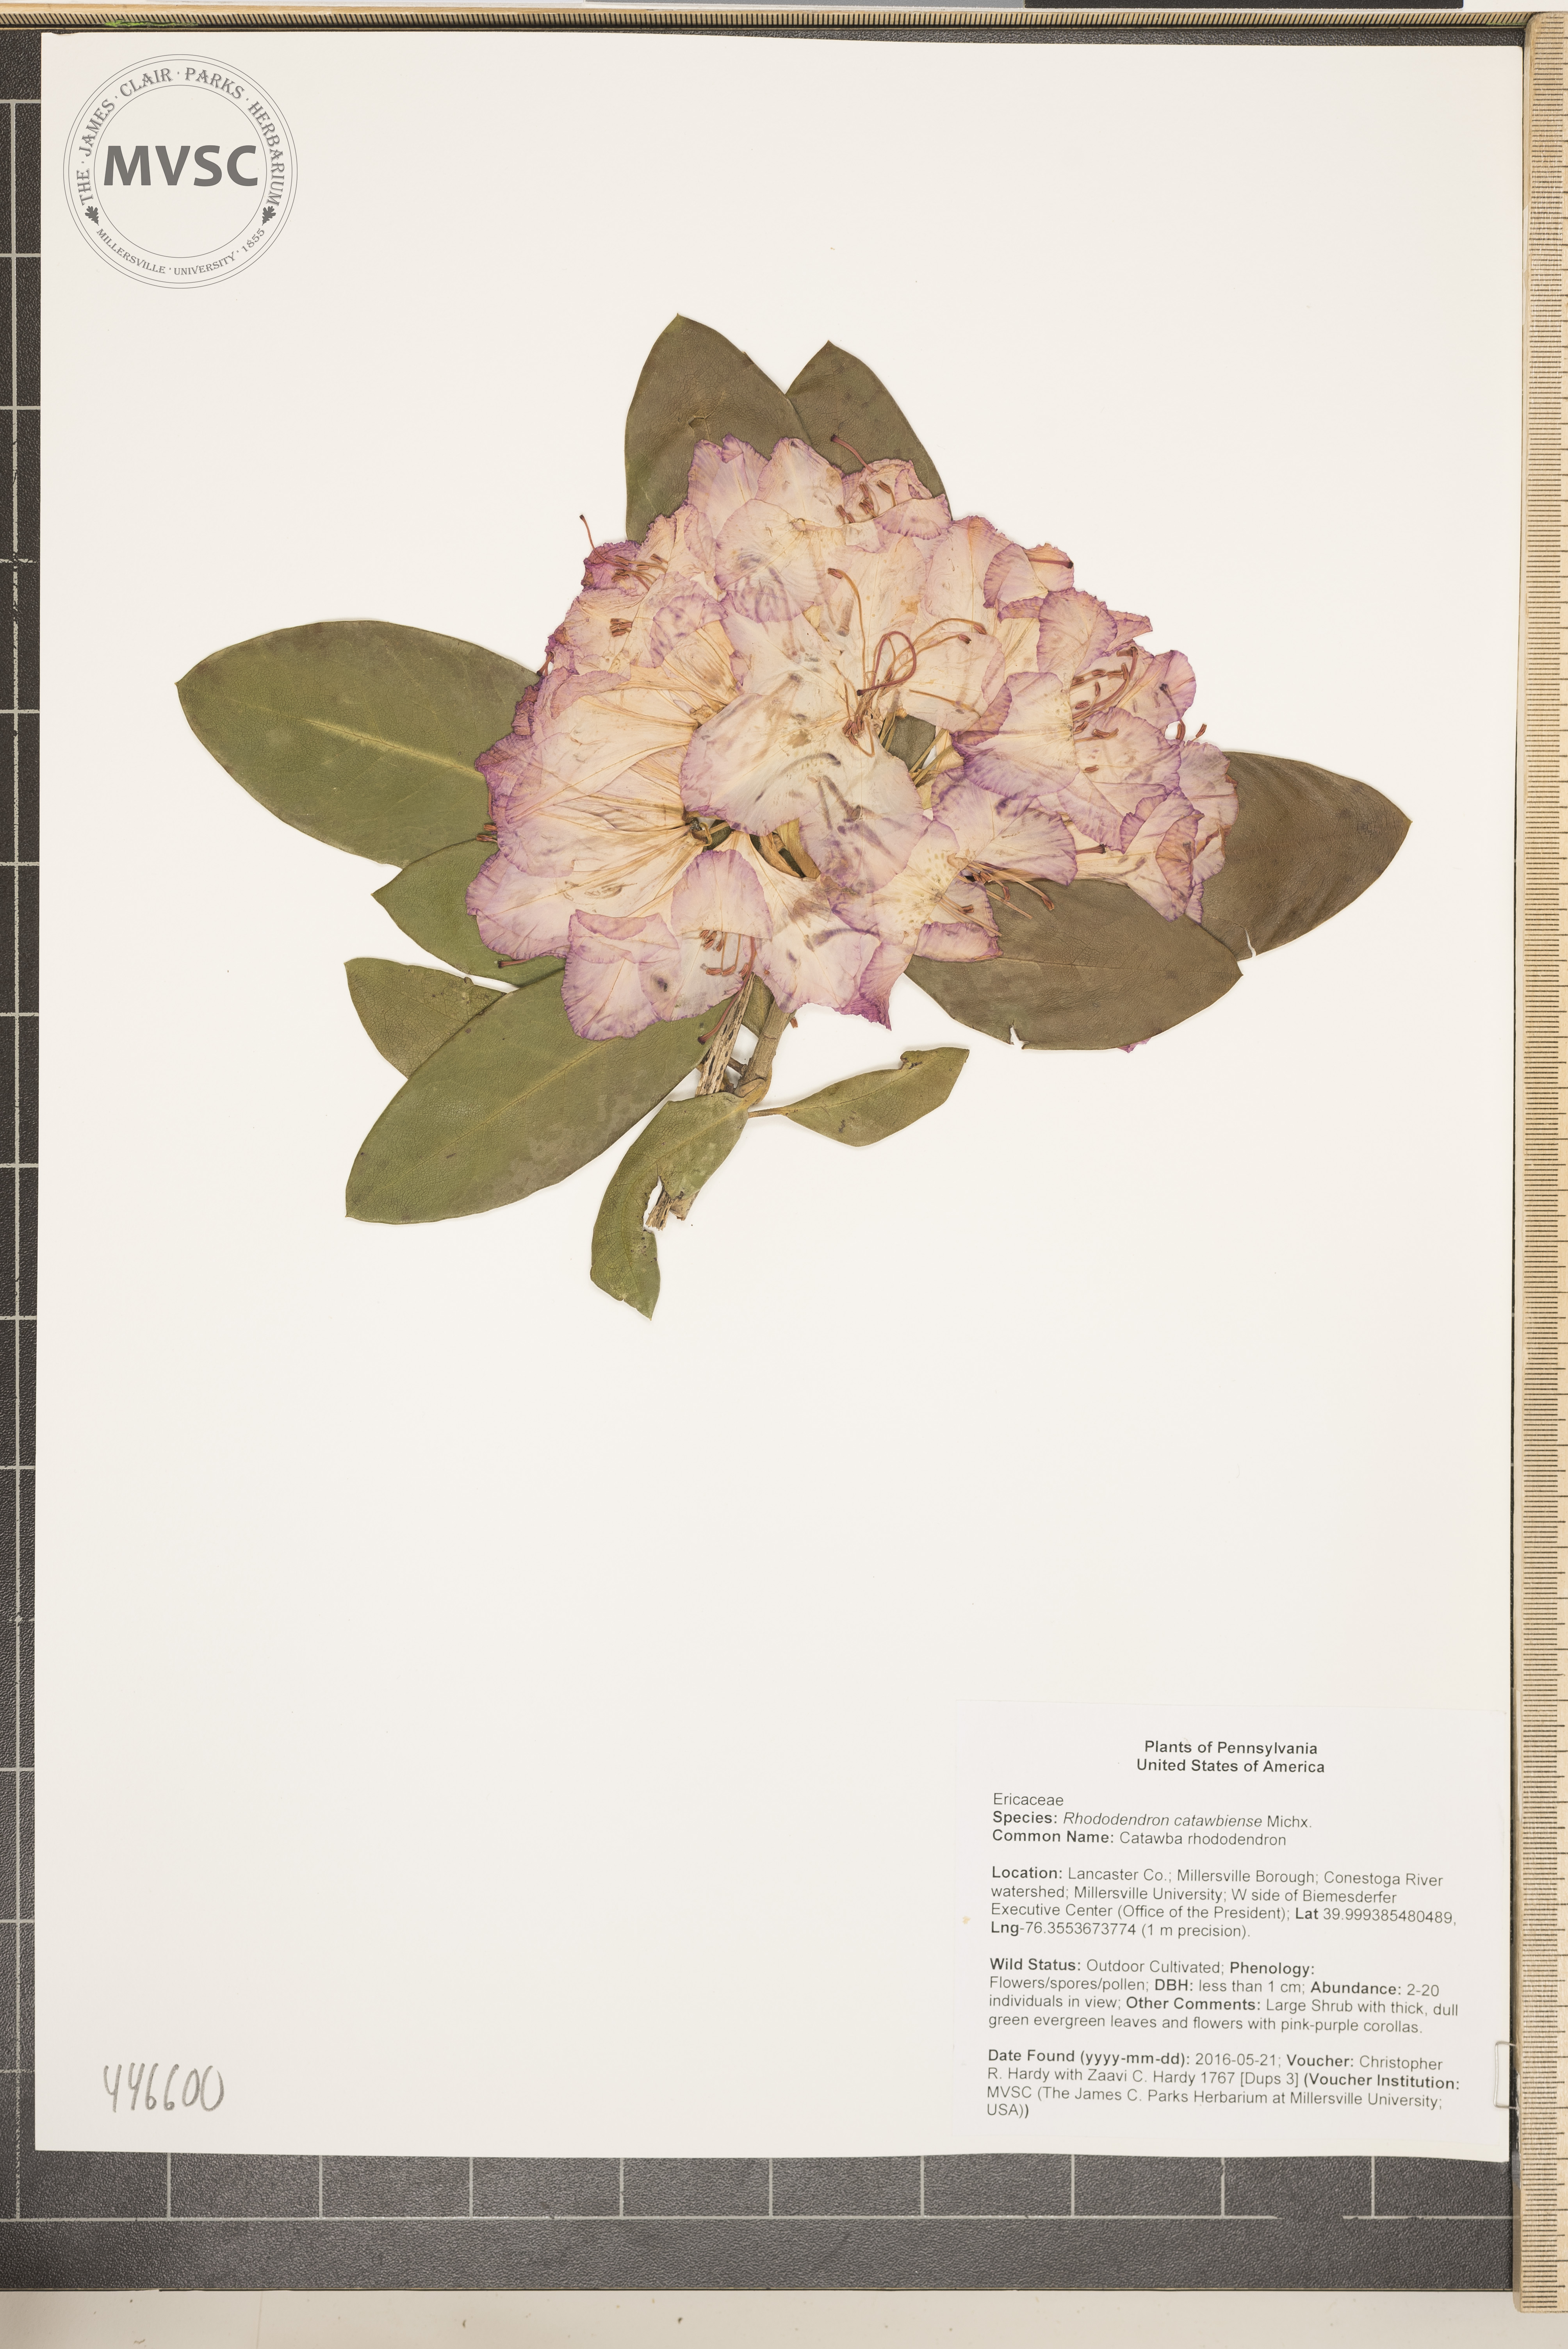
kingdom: Plantae
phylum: Tracheophyta
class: Magnoliopsida
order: Ericales
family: Ericaceae
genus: Rhododendron
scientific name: Rhododendron catawbiense
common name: Catawba rhododendron
